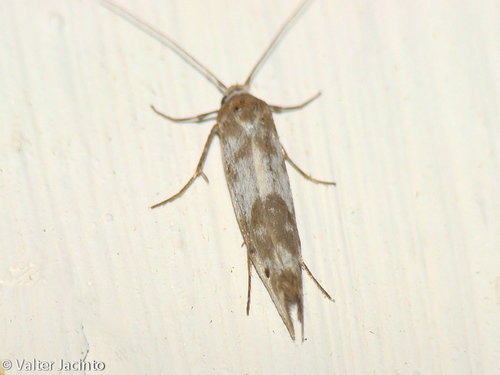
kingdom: Animalia
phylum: Arthropoda
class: Insecta
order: Lepidoptera
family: Scythrididae
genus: Enolmis
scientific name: Enolmis acanthella
